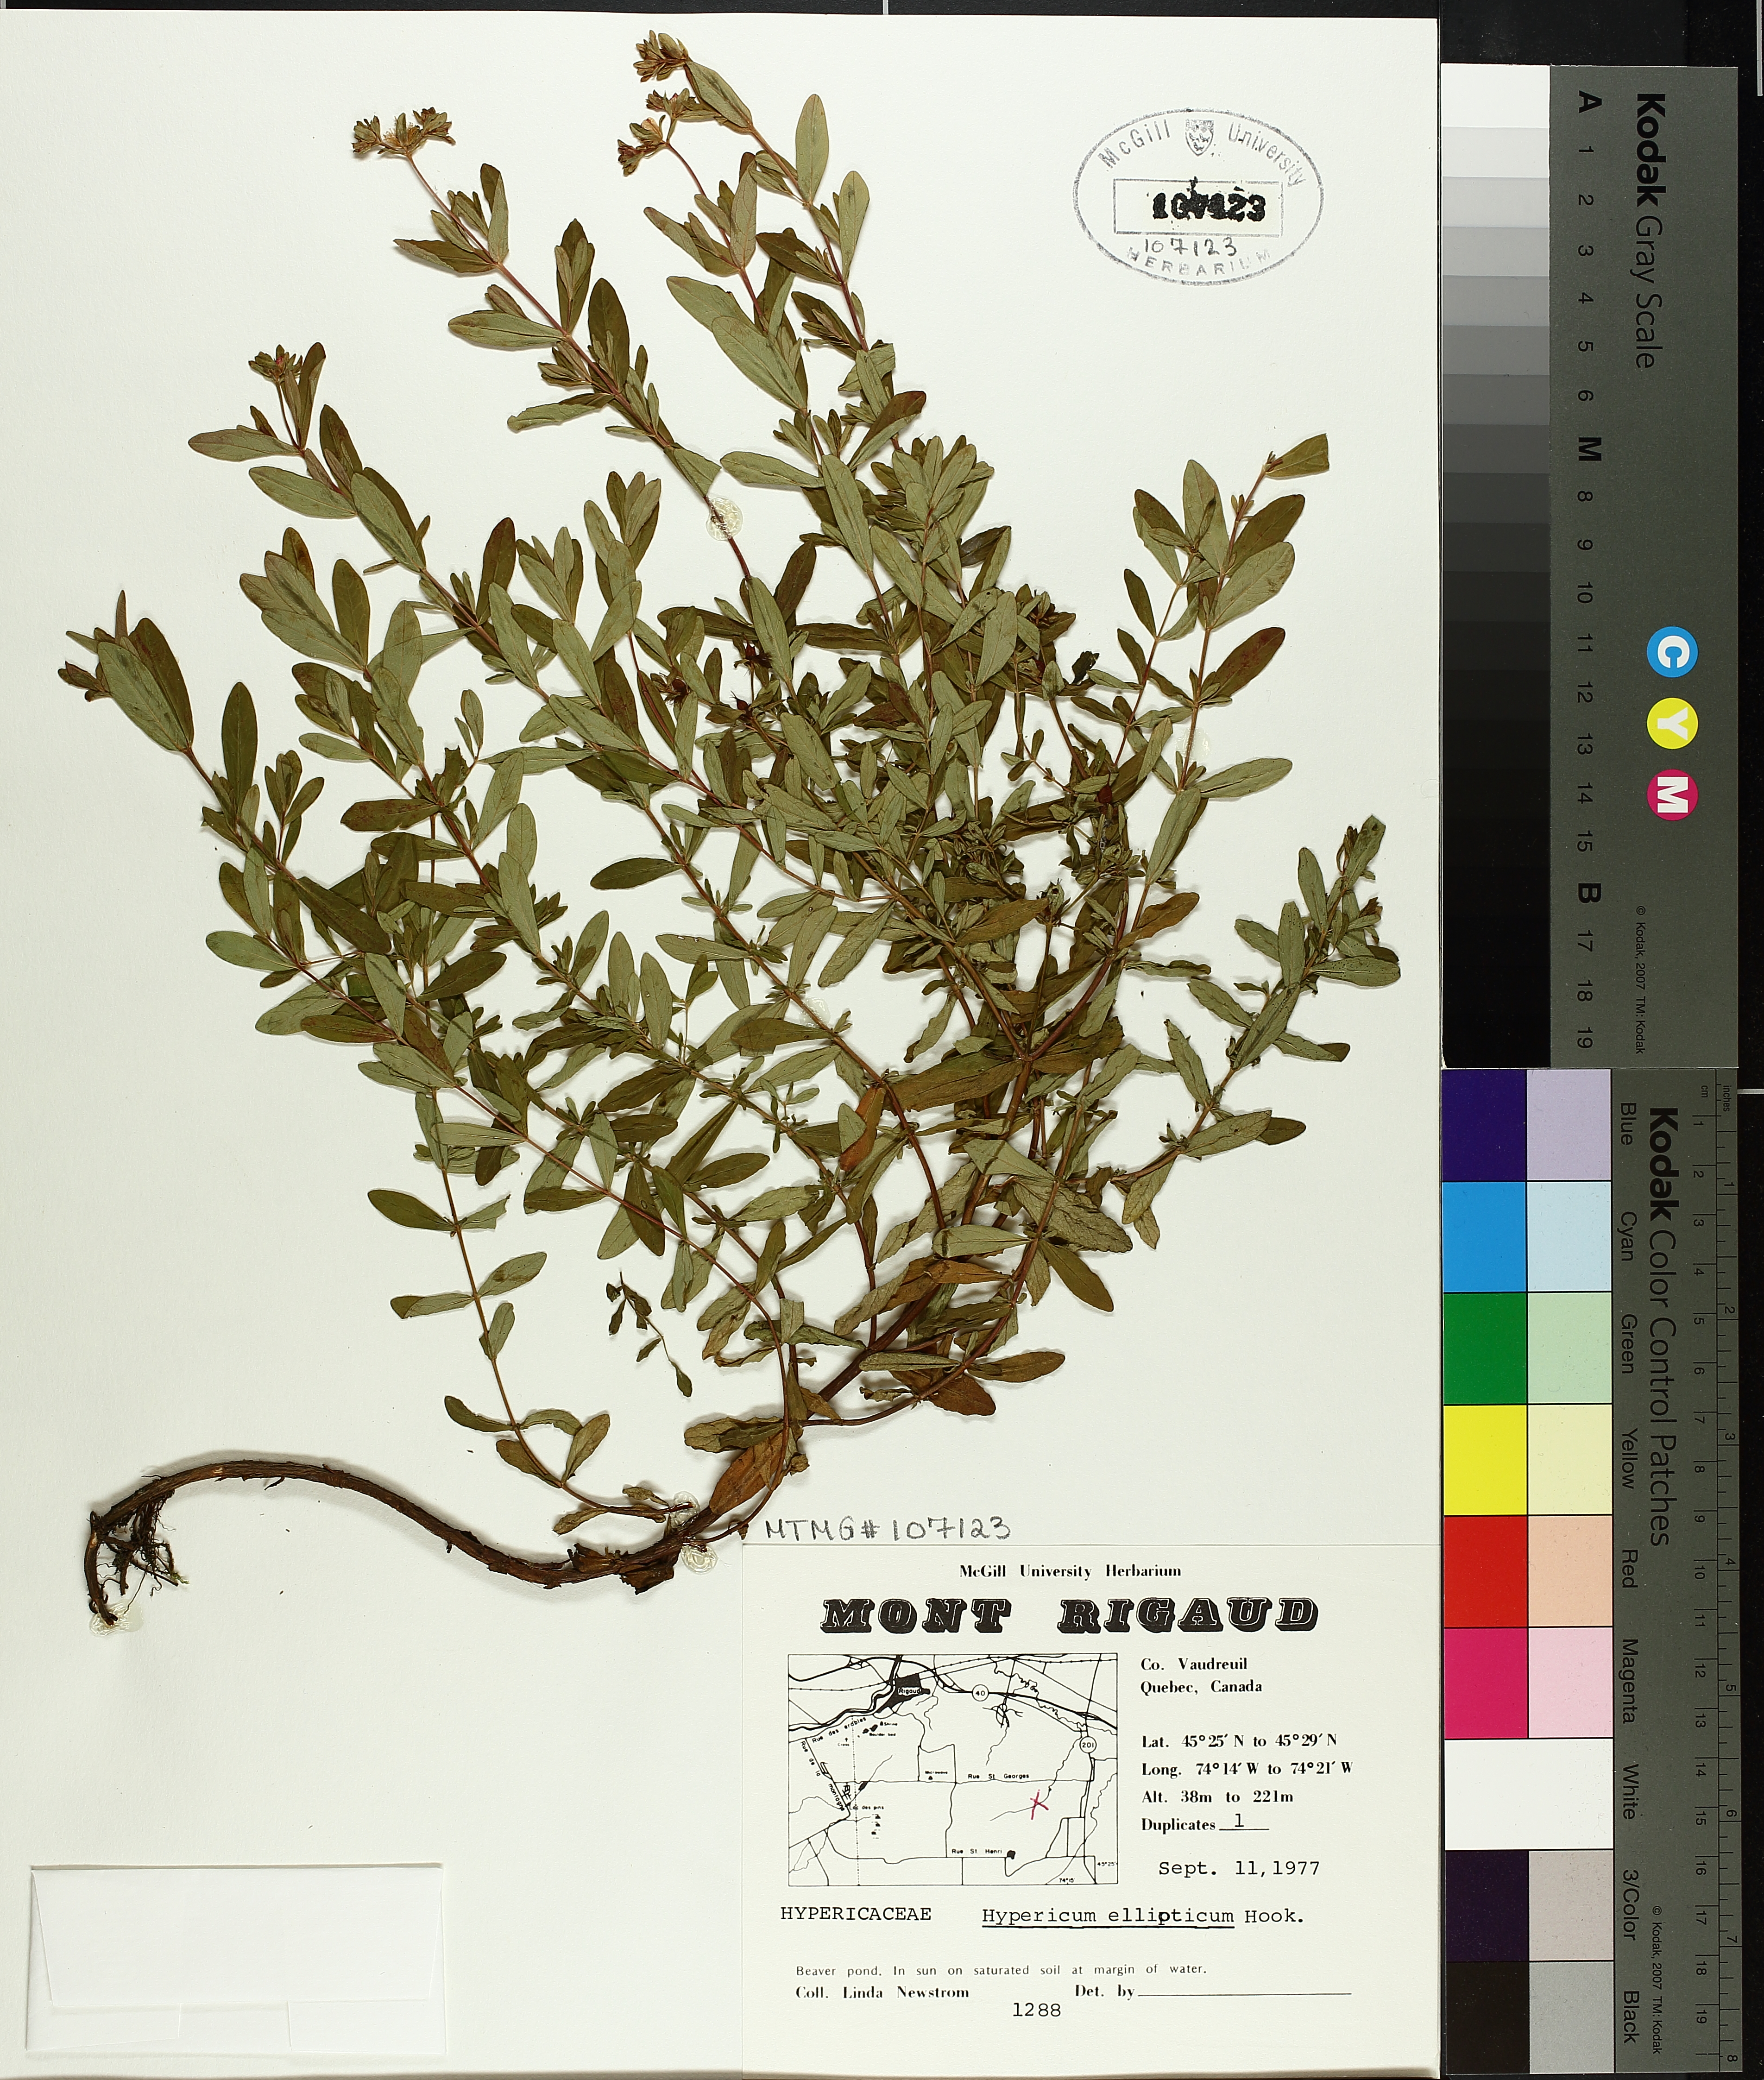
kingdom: Plantae
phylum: Tracheophyta
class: Magnoliopsida
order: Malpighiales
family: Hypericaceae
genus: Hypericum
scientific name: Hypericum ellipticum
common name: Elliptic st. john's-wort
